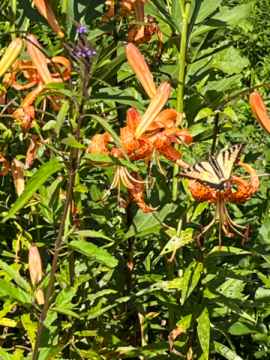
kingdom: Animalia
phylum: Arthropoda
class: Insecta
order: Lepidoptera
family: Papilionidae
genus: Pterourus
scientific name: Pterourus canadensis
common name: Canadian Tiger Swallowtail
